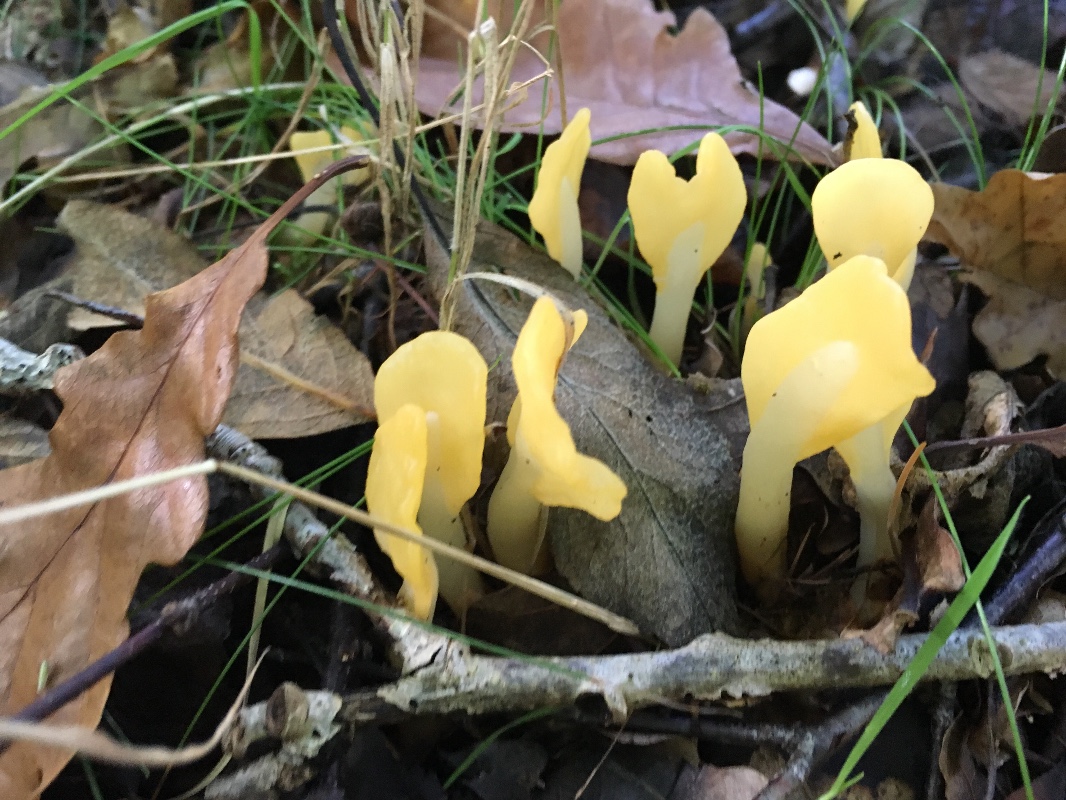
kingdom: Fungi
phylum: Ascomycota
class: Leotiomycetes
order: Rhytismatales
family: Cudoniaceae
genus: Spathularia
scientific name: Spathularia flavida
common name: gul spatelsvamp
